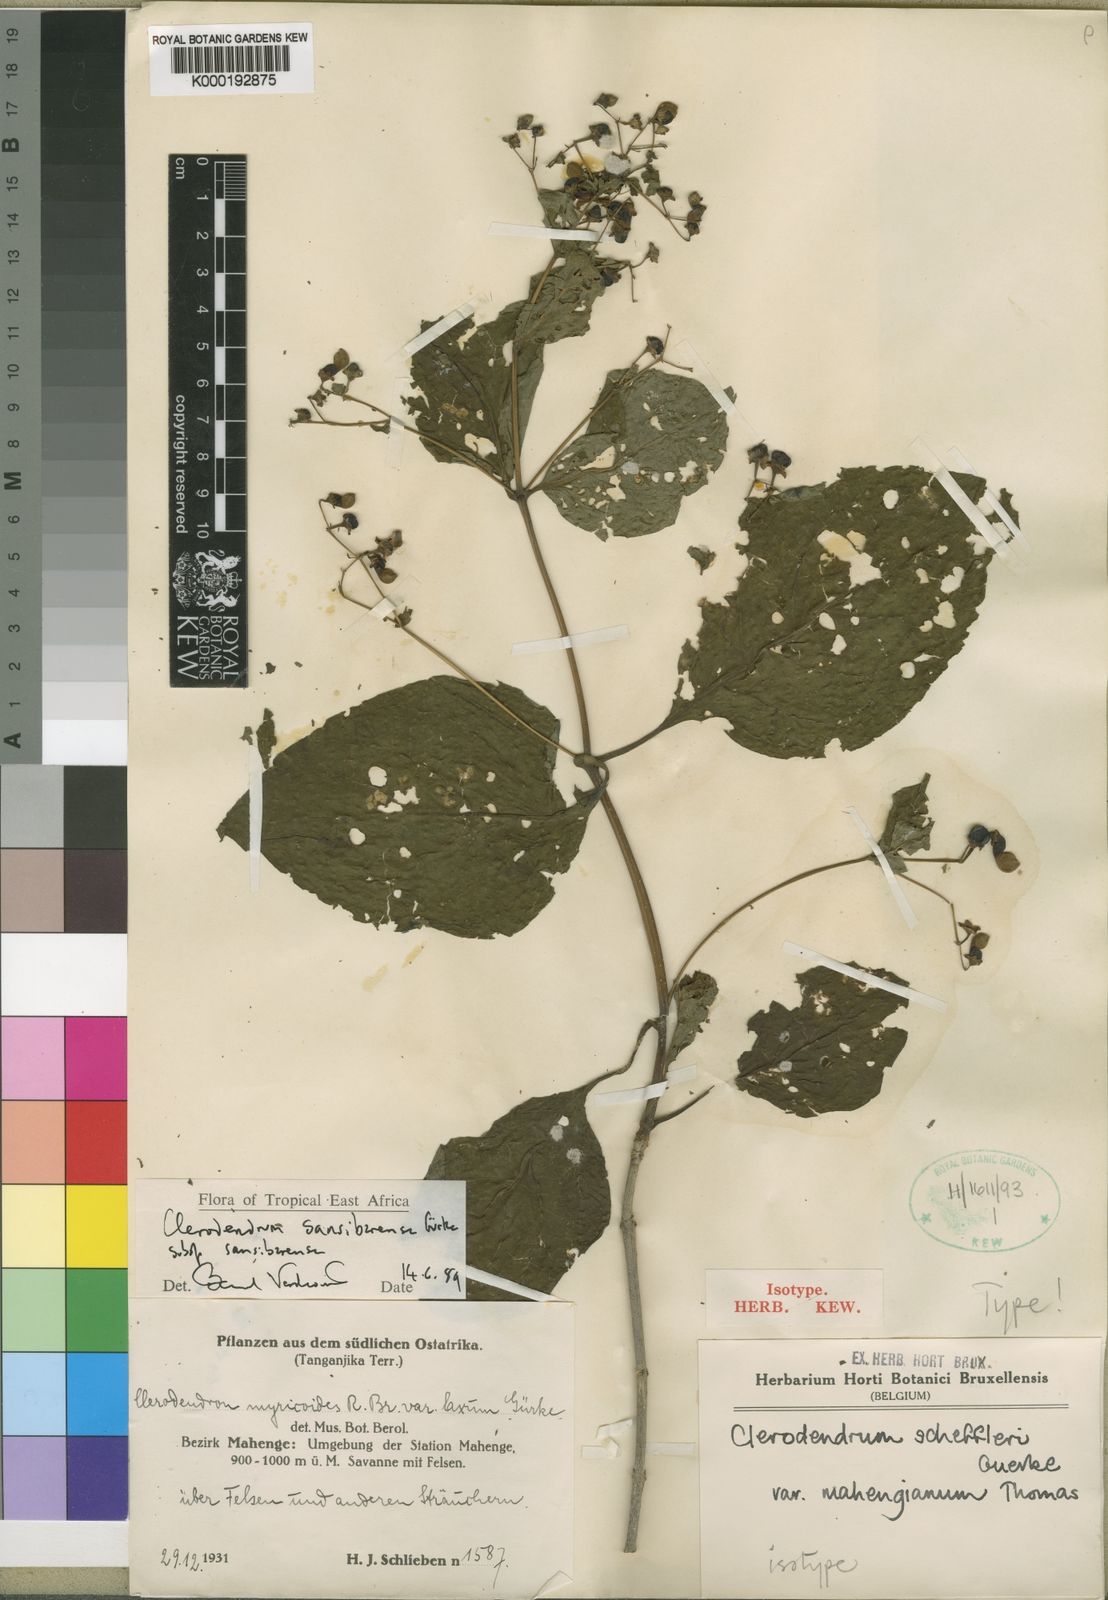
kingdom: Plantae
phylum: Tracheophyta
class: Magnoliopsida
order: Lamiales
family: Lamiaceae
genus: Clerodendrum
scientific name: Clerodendrum
